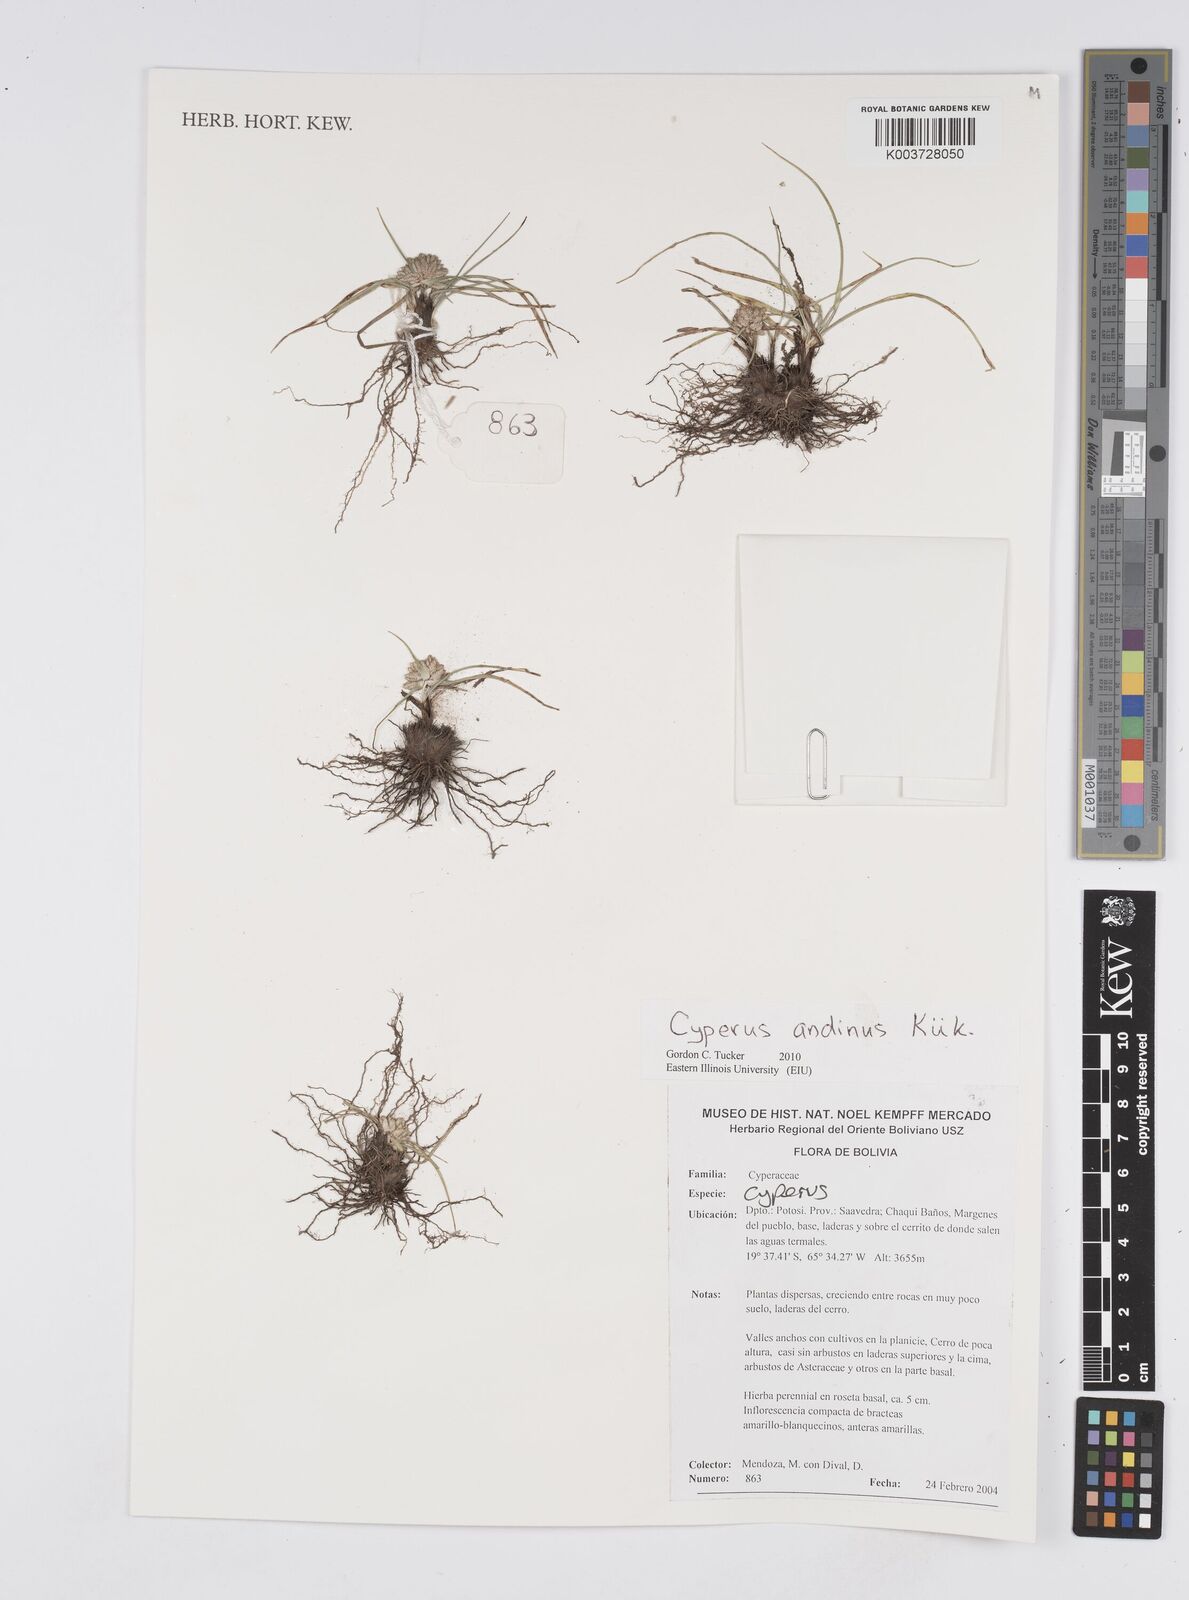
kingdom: Plantae
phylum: Tracheophyta
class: Liliopsida
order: Poales
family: Cyperaceae
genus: Cyperus
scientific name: Cyperus seslerioides
